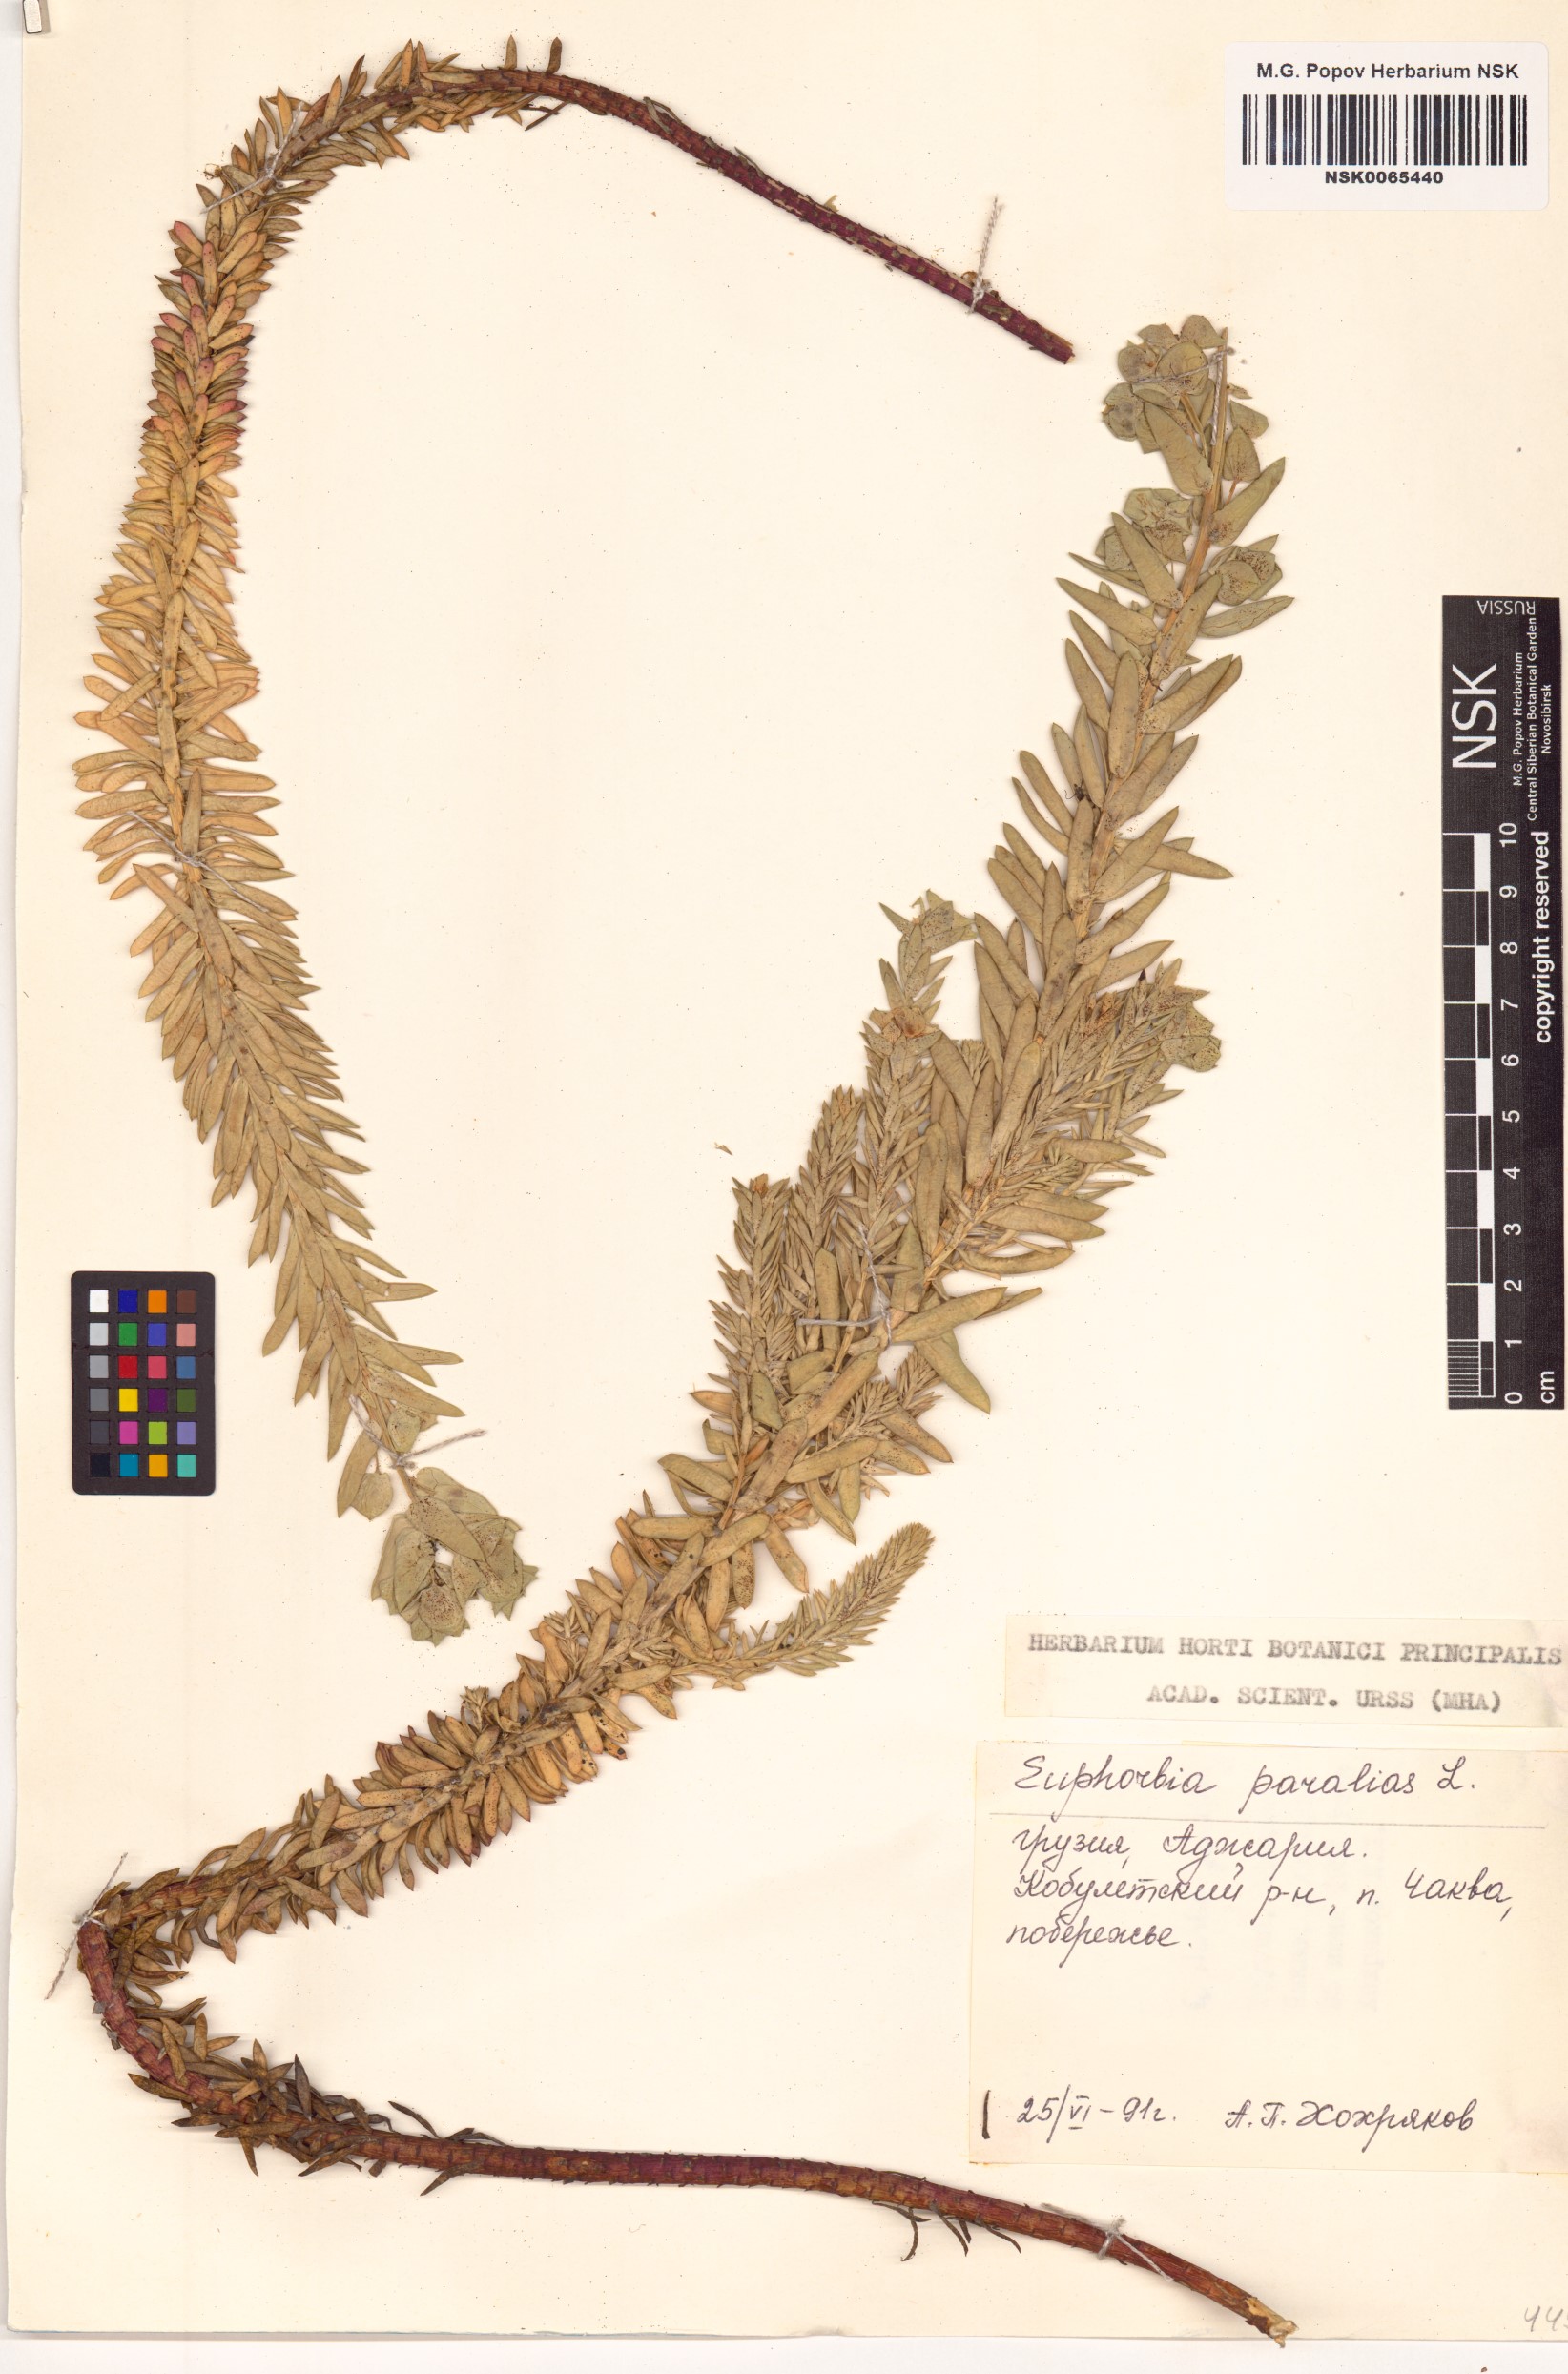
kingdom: Plantae
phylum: Tracheophyta
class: Magnoliopsida
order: Malpighiales
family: Euphorbiaceae
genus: Euphorbia
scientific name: Euphorbia paralias
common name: Sea spurge
